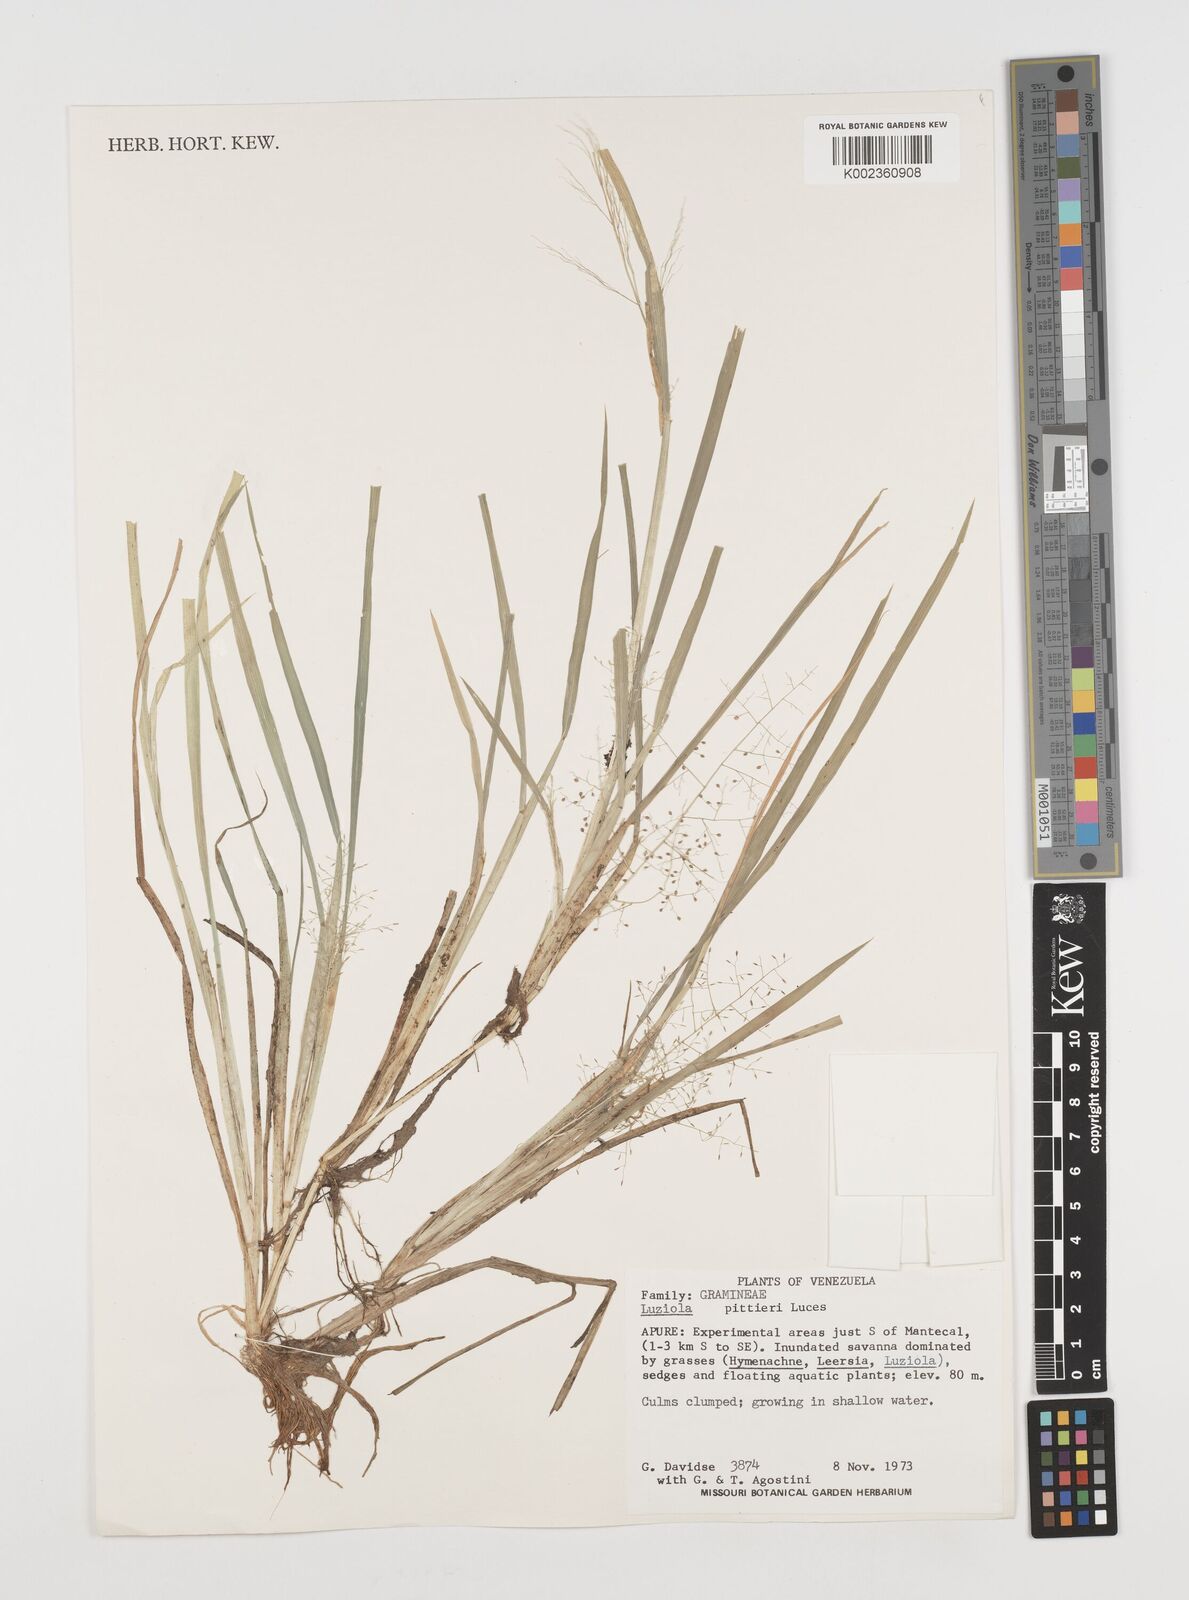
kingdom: Plantae
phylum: Tracheophyta
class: Liliopsida
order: Poales
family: Poaceae
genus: Luziola
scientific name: Luziola brasiliana
